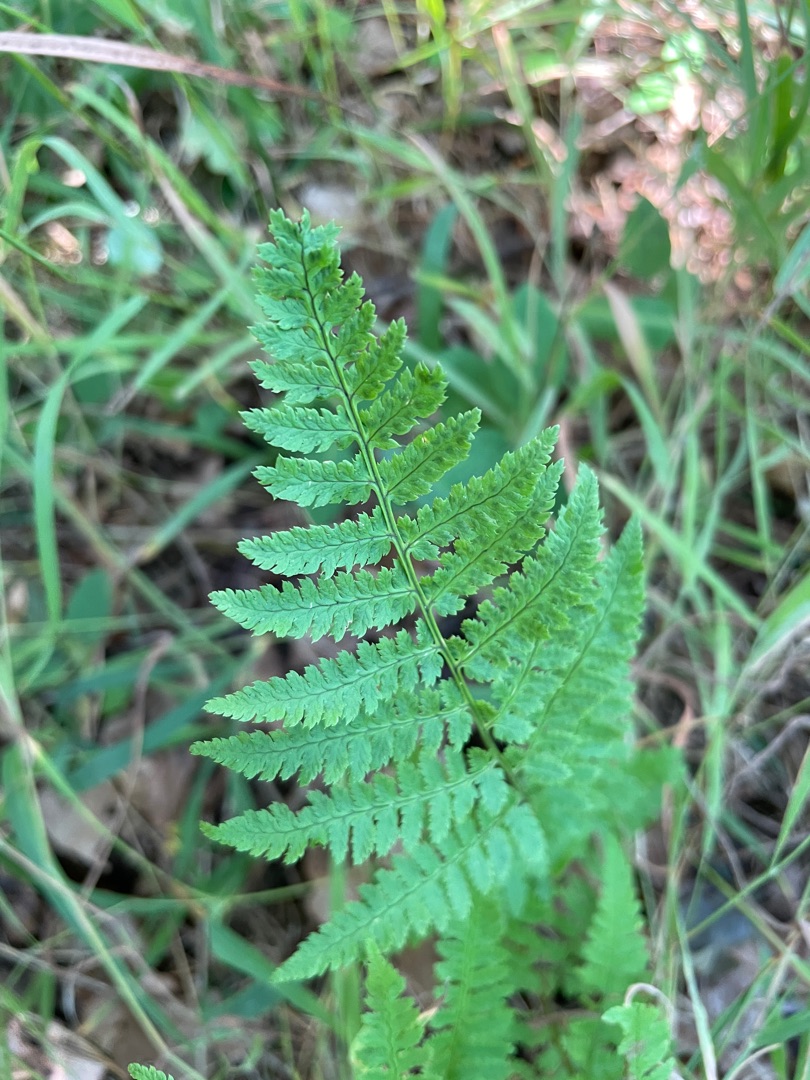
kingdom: Plantae
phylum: Tracheophyta
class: Polypodiopsida
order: Polypodiales
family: Dryopteridaceae
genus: Dryopteris
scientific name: Dryopteris
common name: Mangeløv (Dryopteris-slægten)
